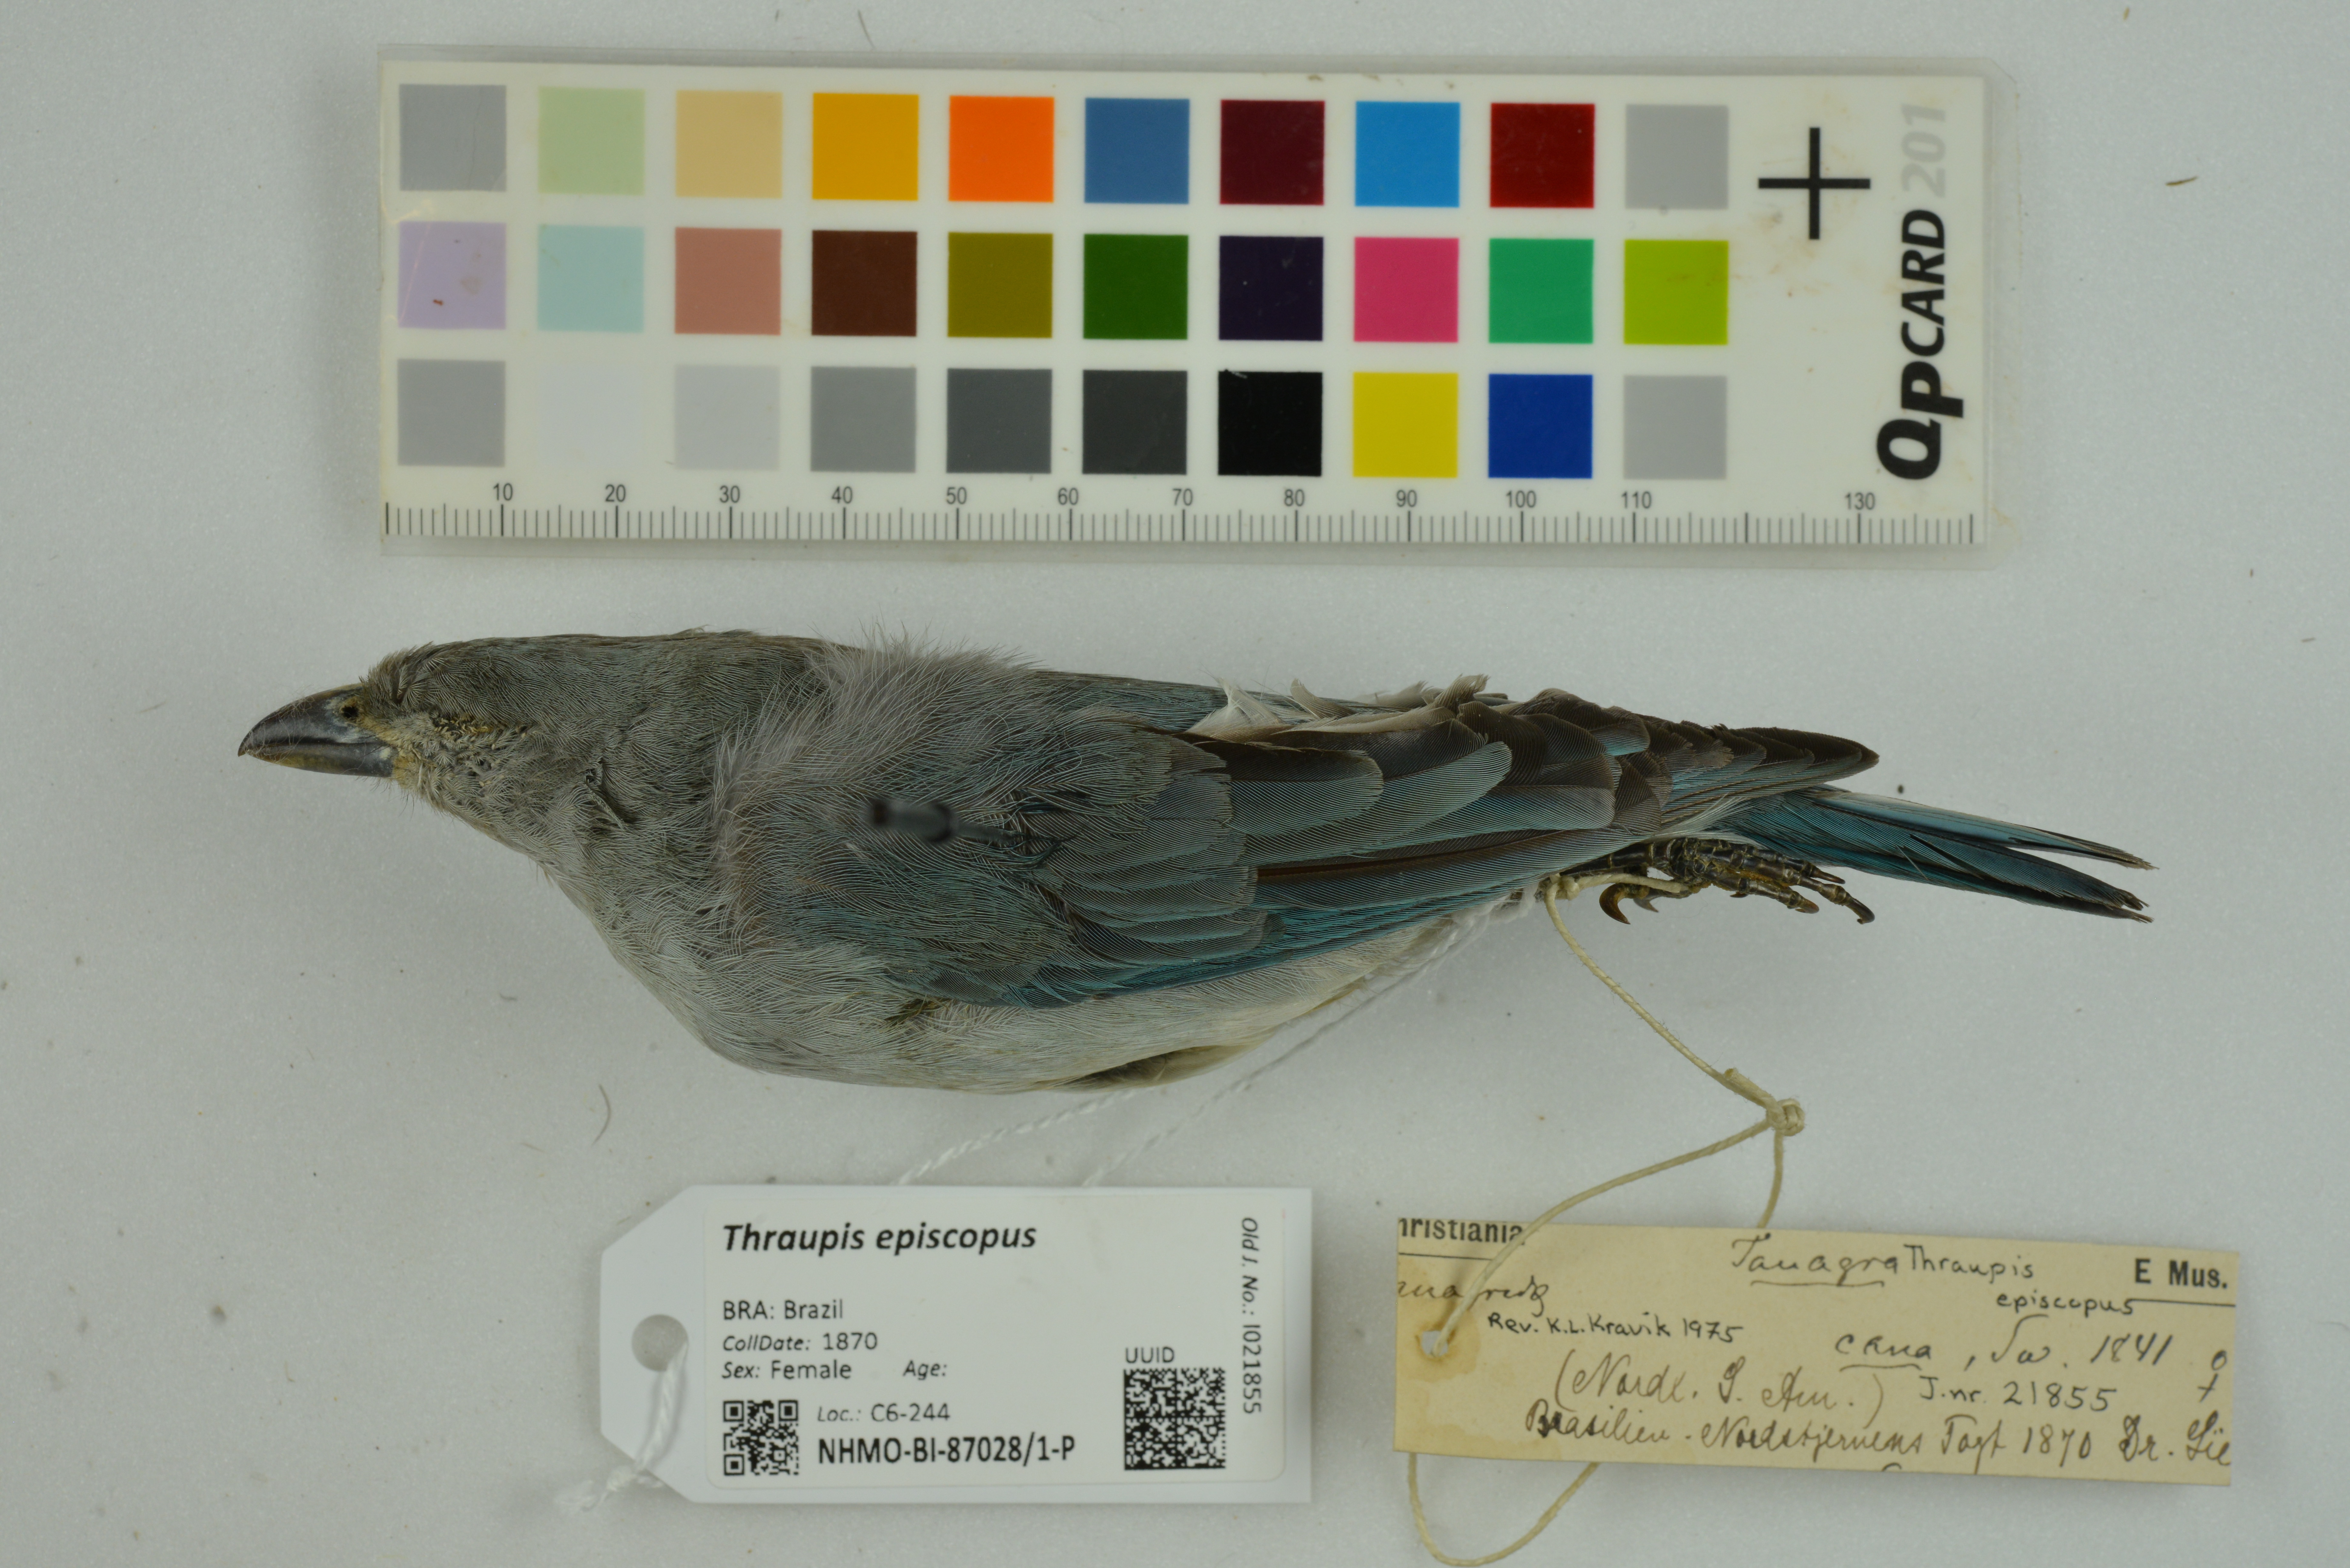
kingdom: Animalia
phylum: Chordata
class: Aves
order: Passeriformes
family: Thraupidae
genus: Thraupis
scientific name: Thraupis episcopus
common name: Blue-grey tanager
